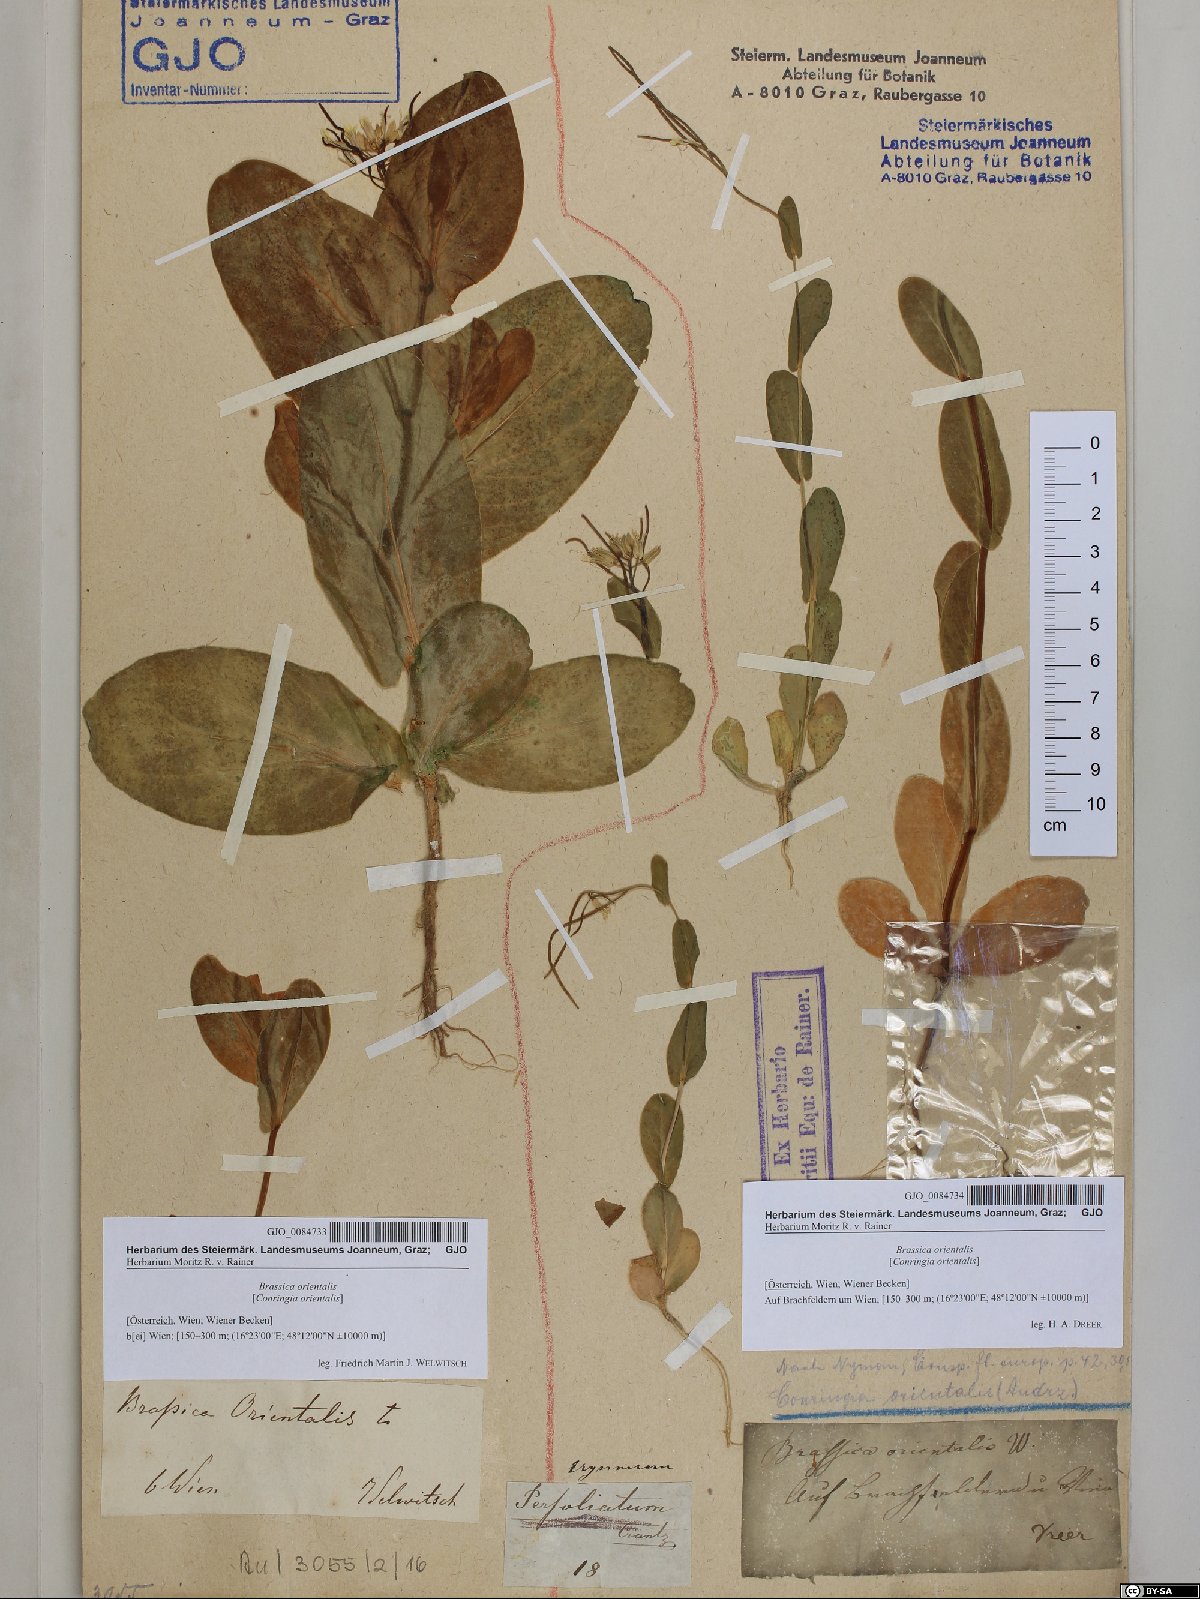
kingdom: Plantae
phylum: Tracheophyta
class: Magnoliopsida
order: Brassicales
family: Brassicaceae
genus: Conringia
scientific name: Conringia orientalis
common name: Hare's ear mustard
